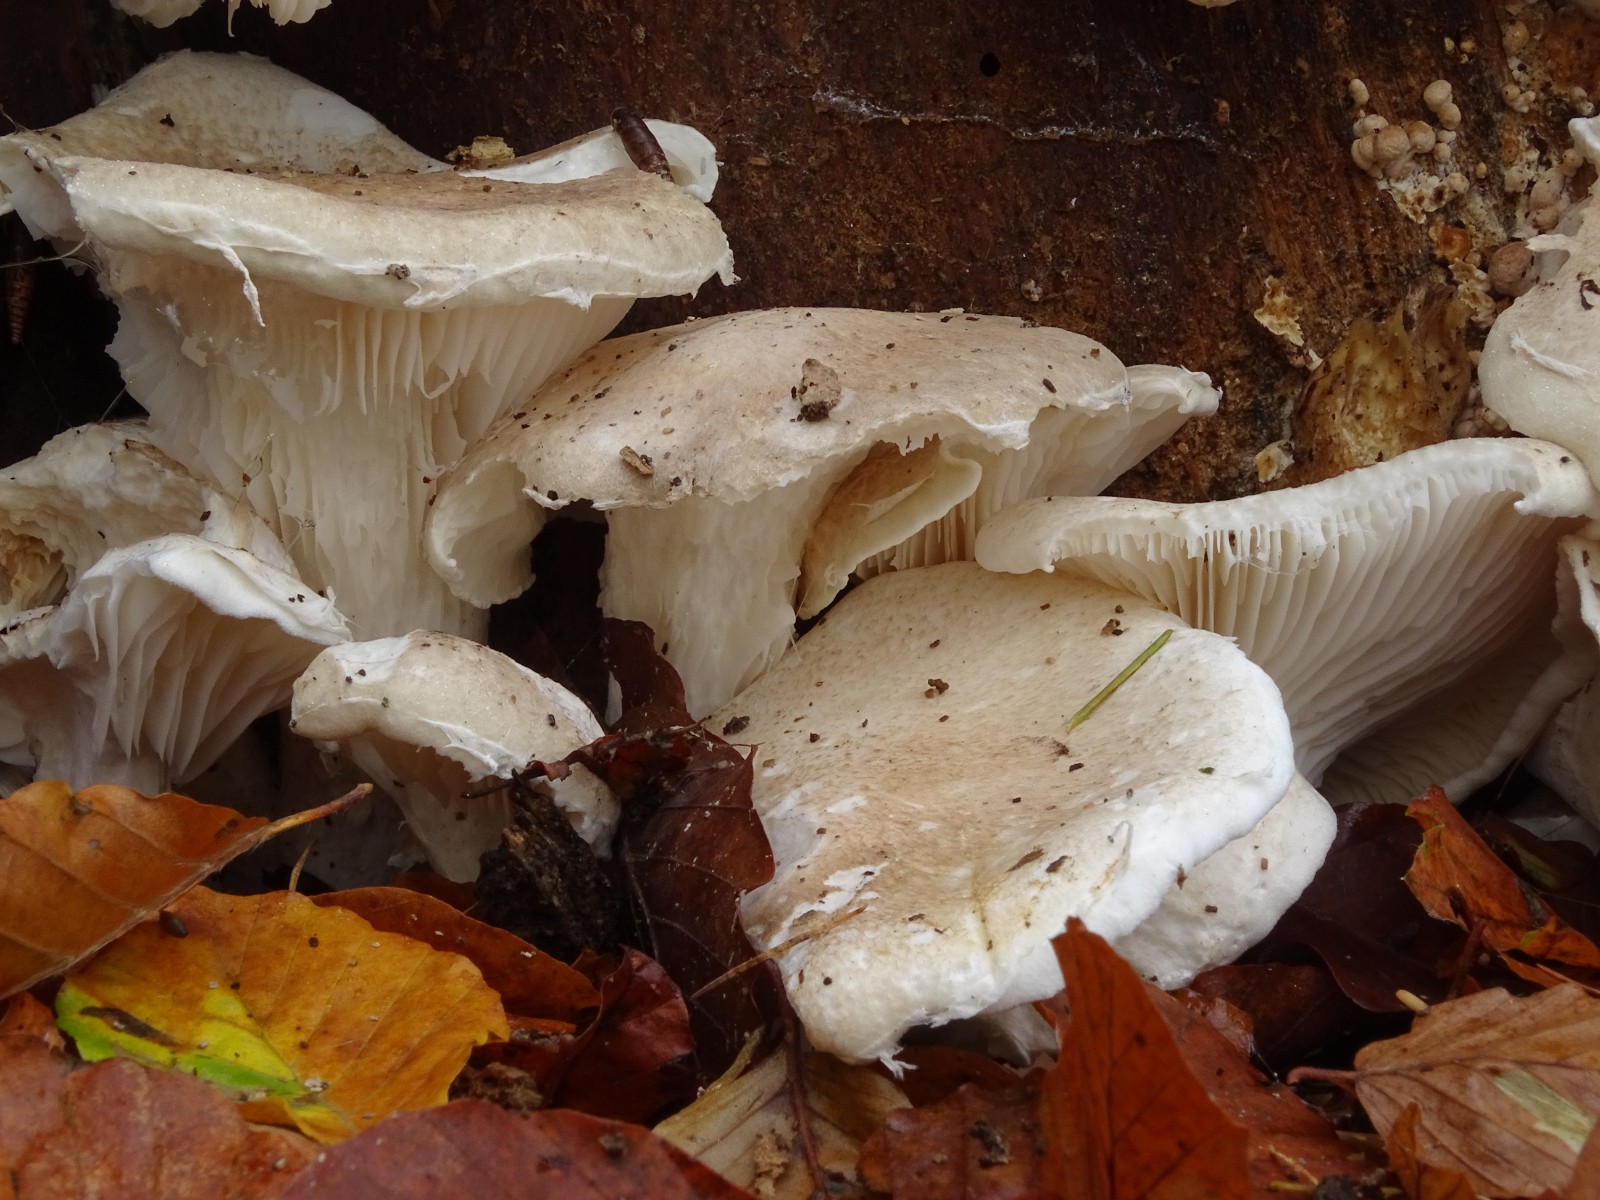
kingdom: Fungi
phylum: Basidiomycota
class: Agaricomycetes
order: Agaricales
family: Pleurotaceae
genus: Pleurotus
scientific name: Pleurotus dryinus
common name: korkagtig østershat
